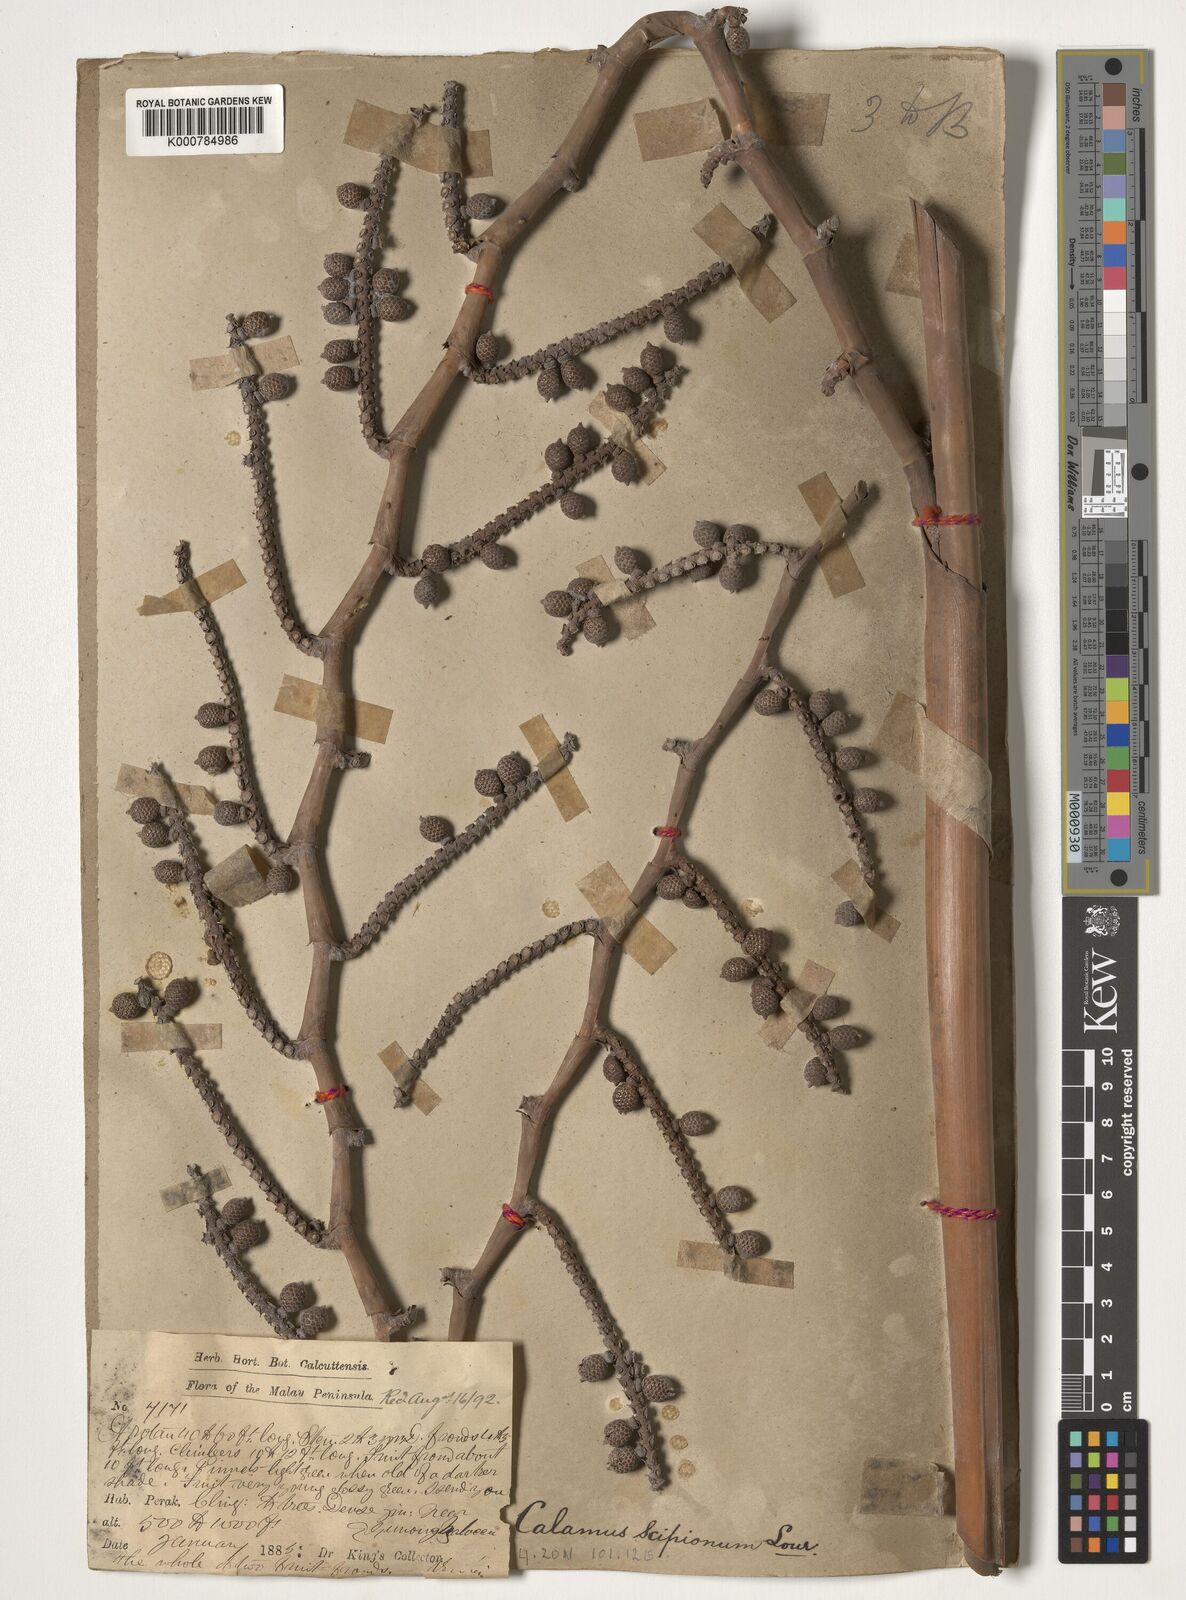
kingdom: Plantae
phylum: Tracheophyta
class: Liliopsida
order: Arecales
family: Arecaceae
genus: Calamus
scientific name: Calamus scipionum
